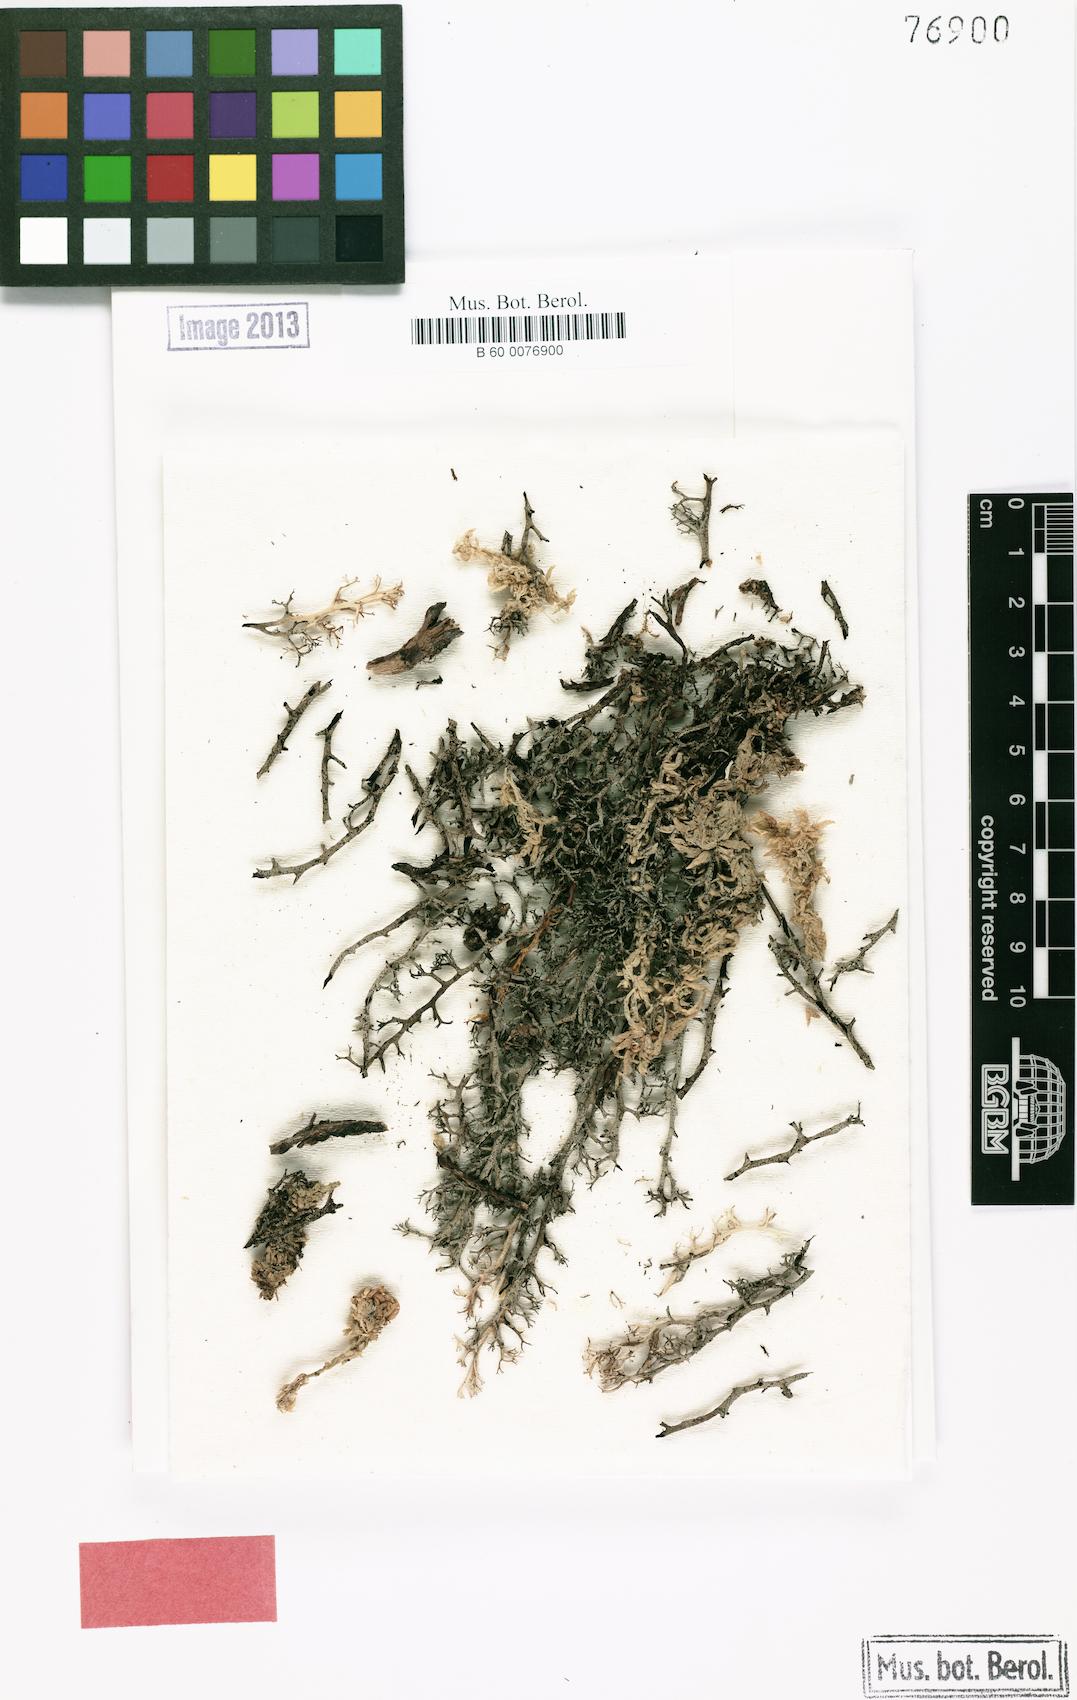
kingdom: Fungi
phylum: Ascomycota
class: Lecanoromycetes
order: Lecanorales
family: Cladoniaceae
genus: Cladonia
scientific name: Cladonia halei
